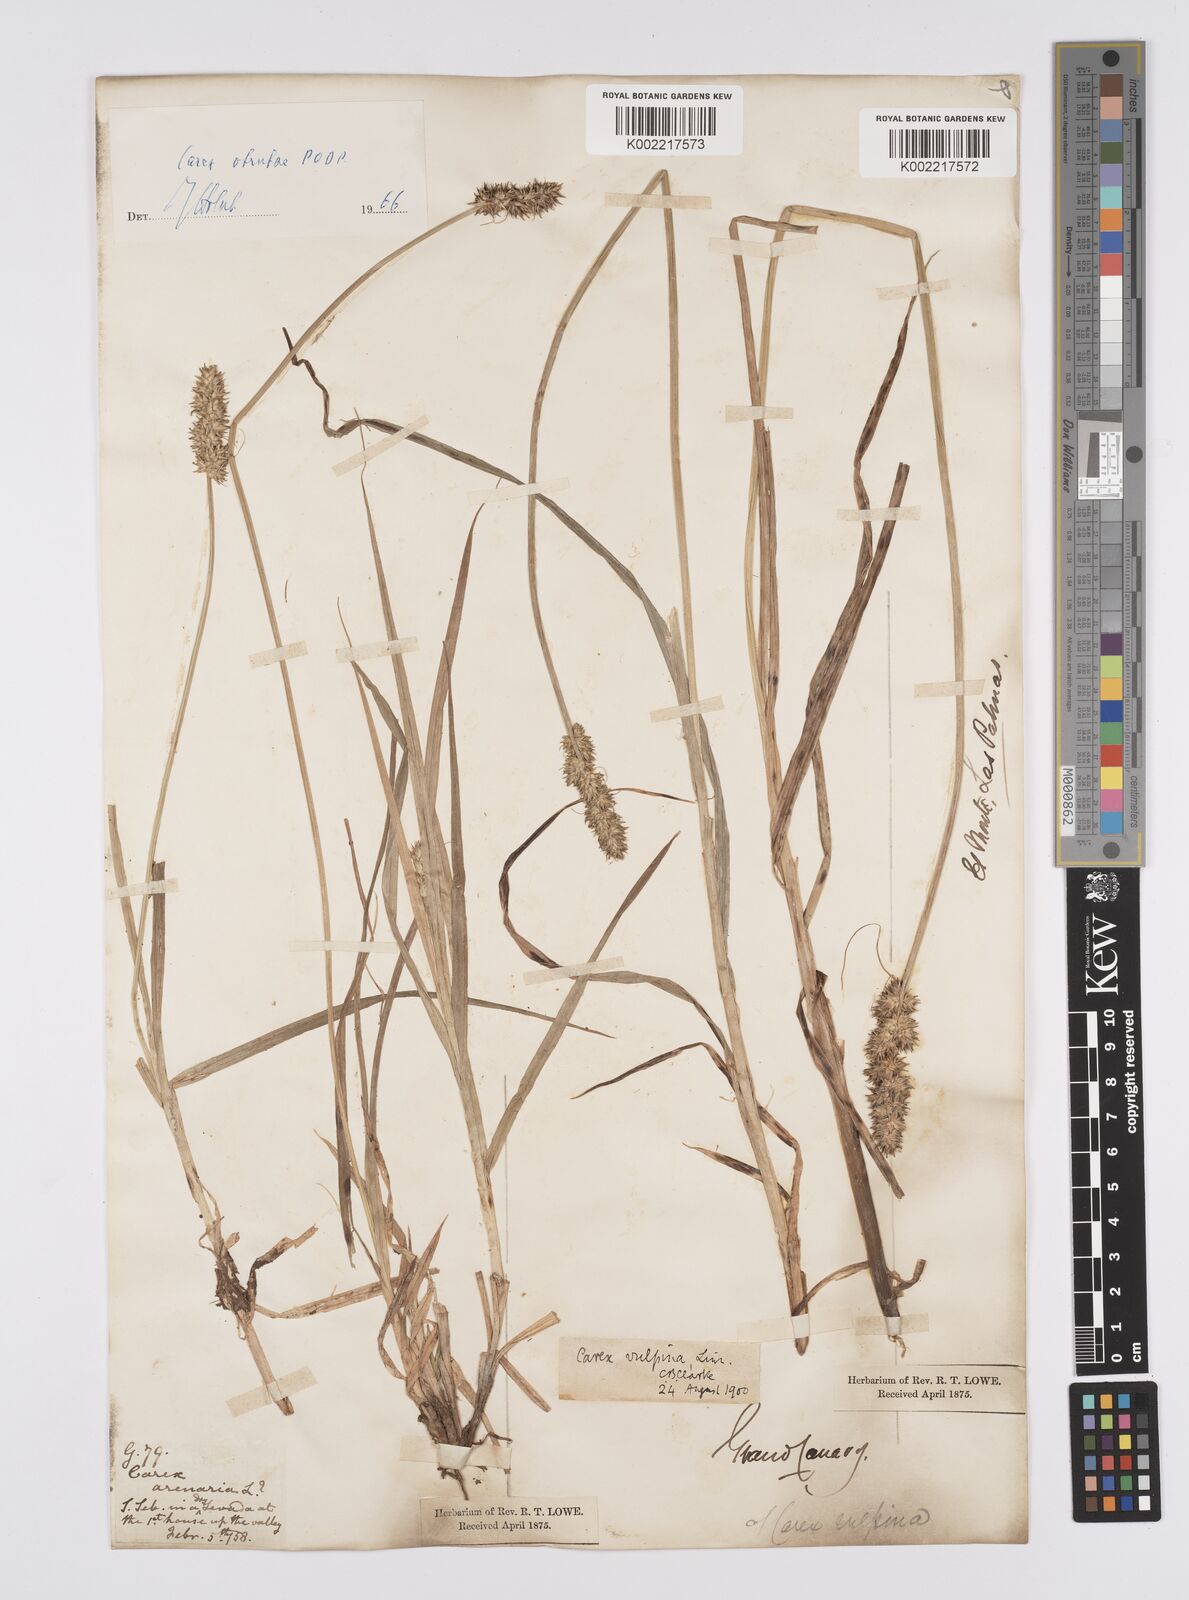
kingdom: Plantae
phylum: Tracheophyta
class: Liliopsida
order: Poales
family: Cyperaceae
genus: Carex
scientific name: Carex arenaria
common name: Sand sedge
